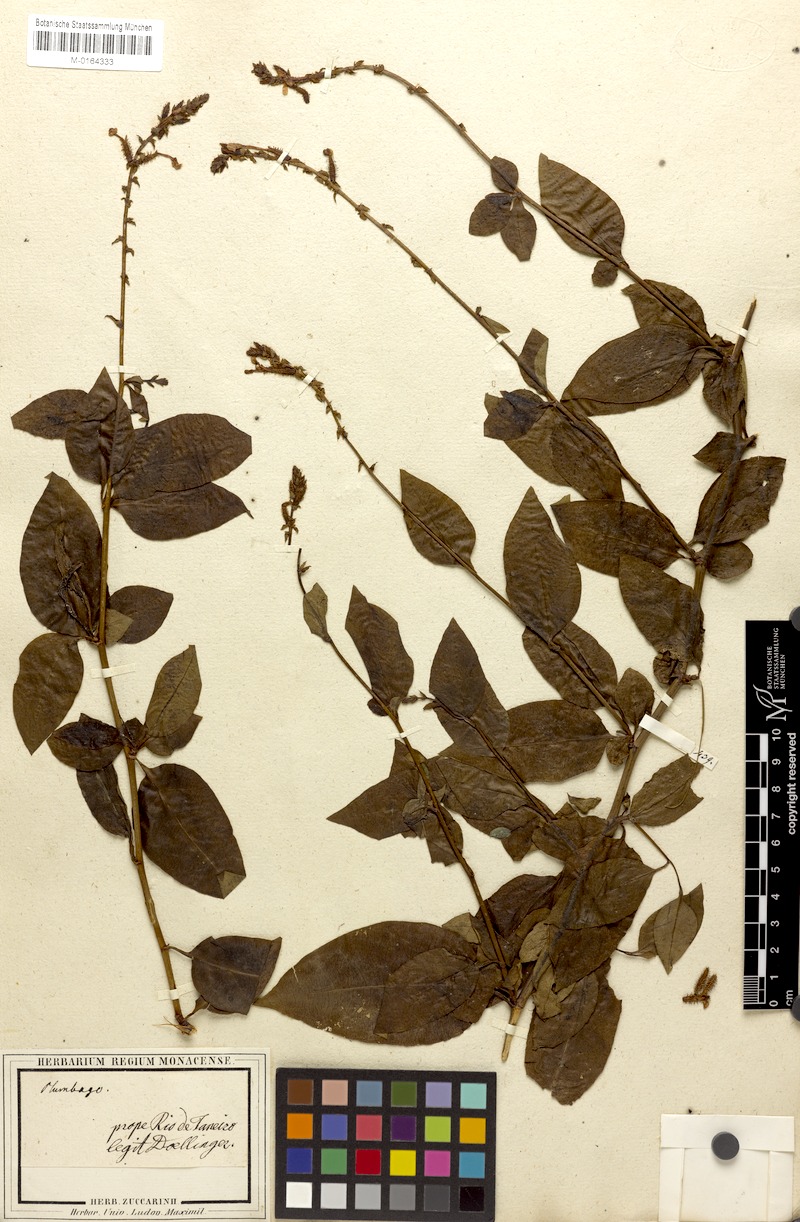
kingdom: Plantae
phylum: Tracheophyta
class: Magnoliopsida
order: Caryophyllales
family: Plumbaginaceae
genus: Plumbago
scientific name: Plumbago zeylanica
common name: Doctorbush
